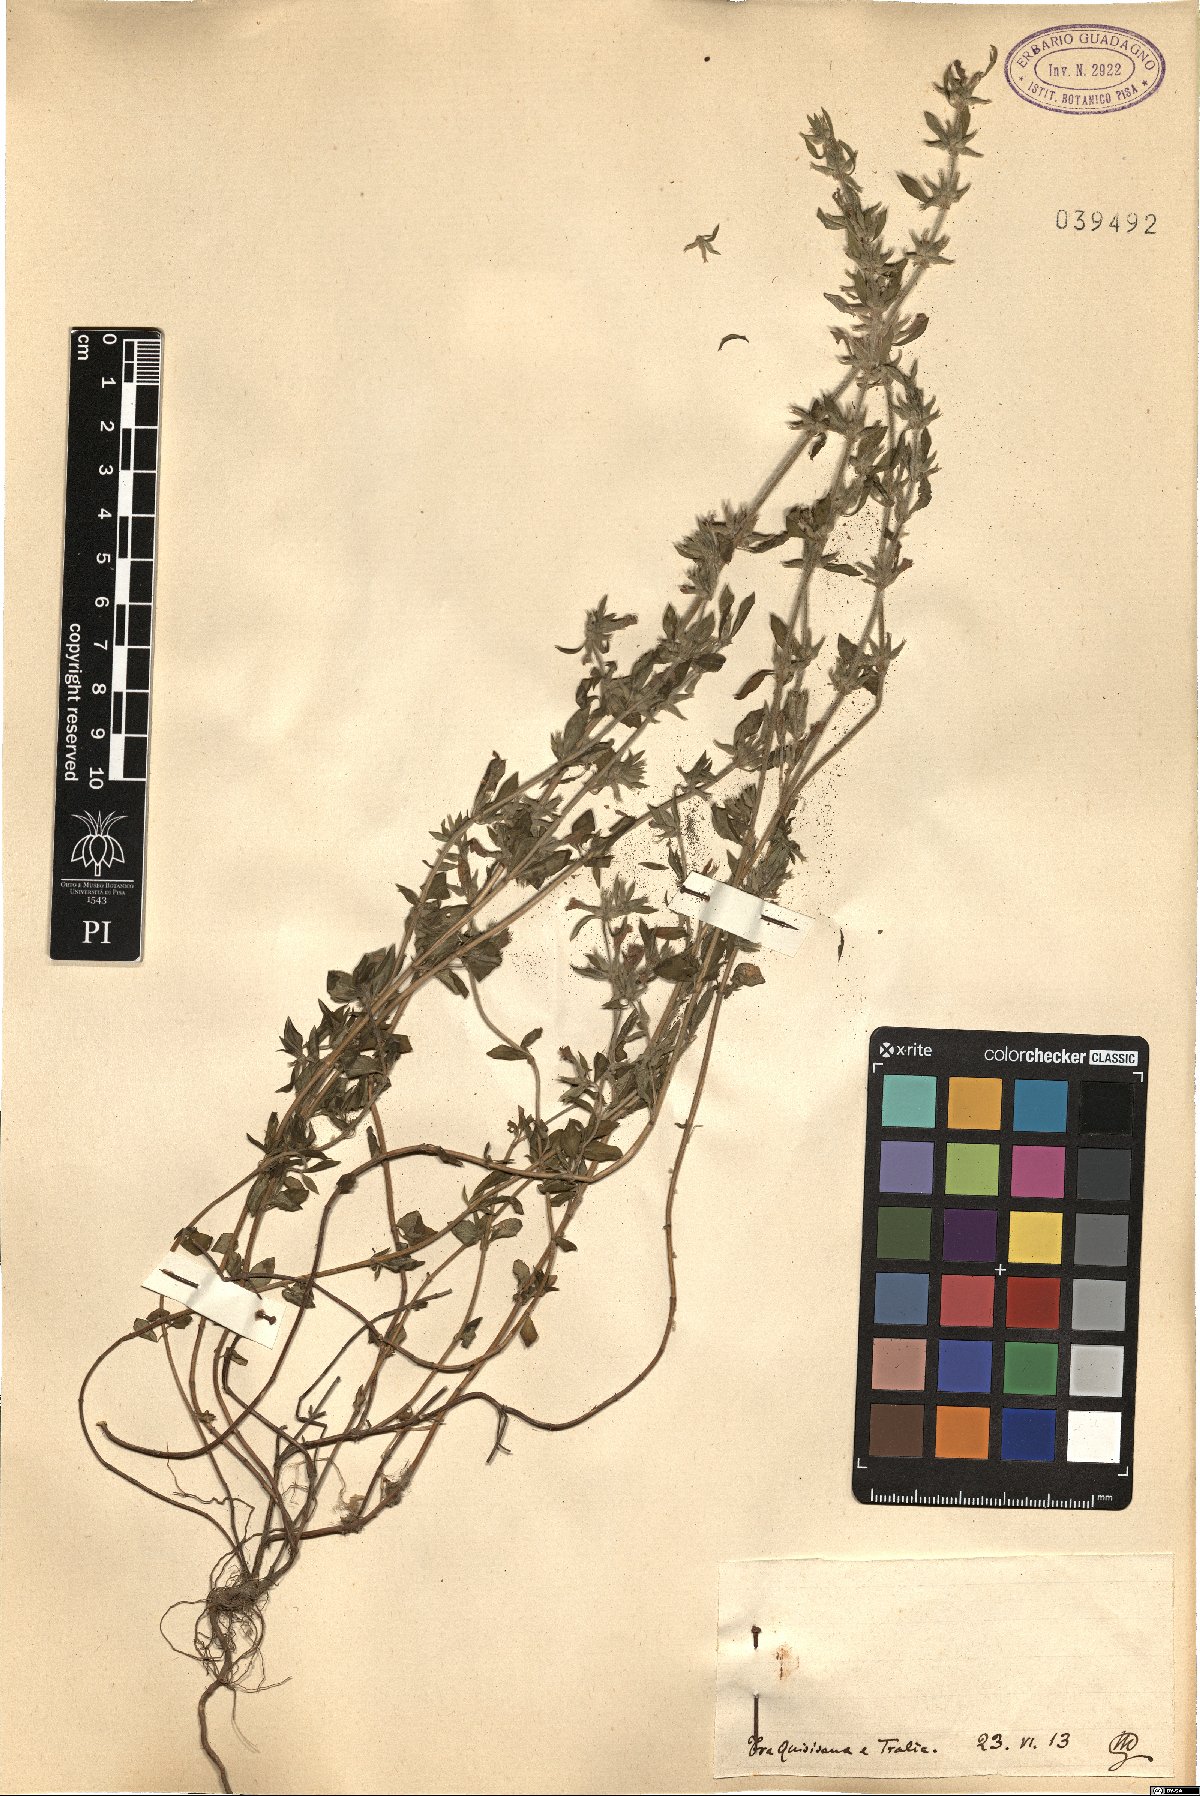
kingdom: Plantae
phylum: Tracheophyta
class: Magnoliopsida
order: Lamiales
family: Lamiaceae
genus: Calamintha
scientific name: Calamintha
